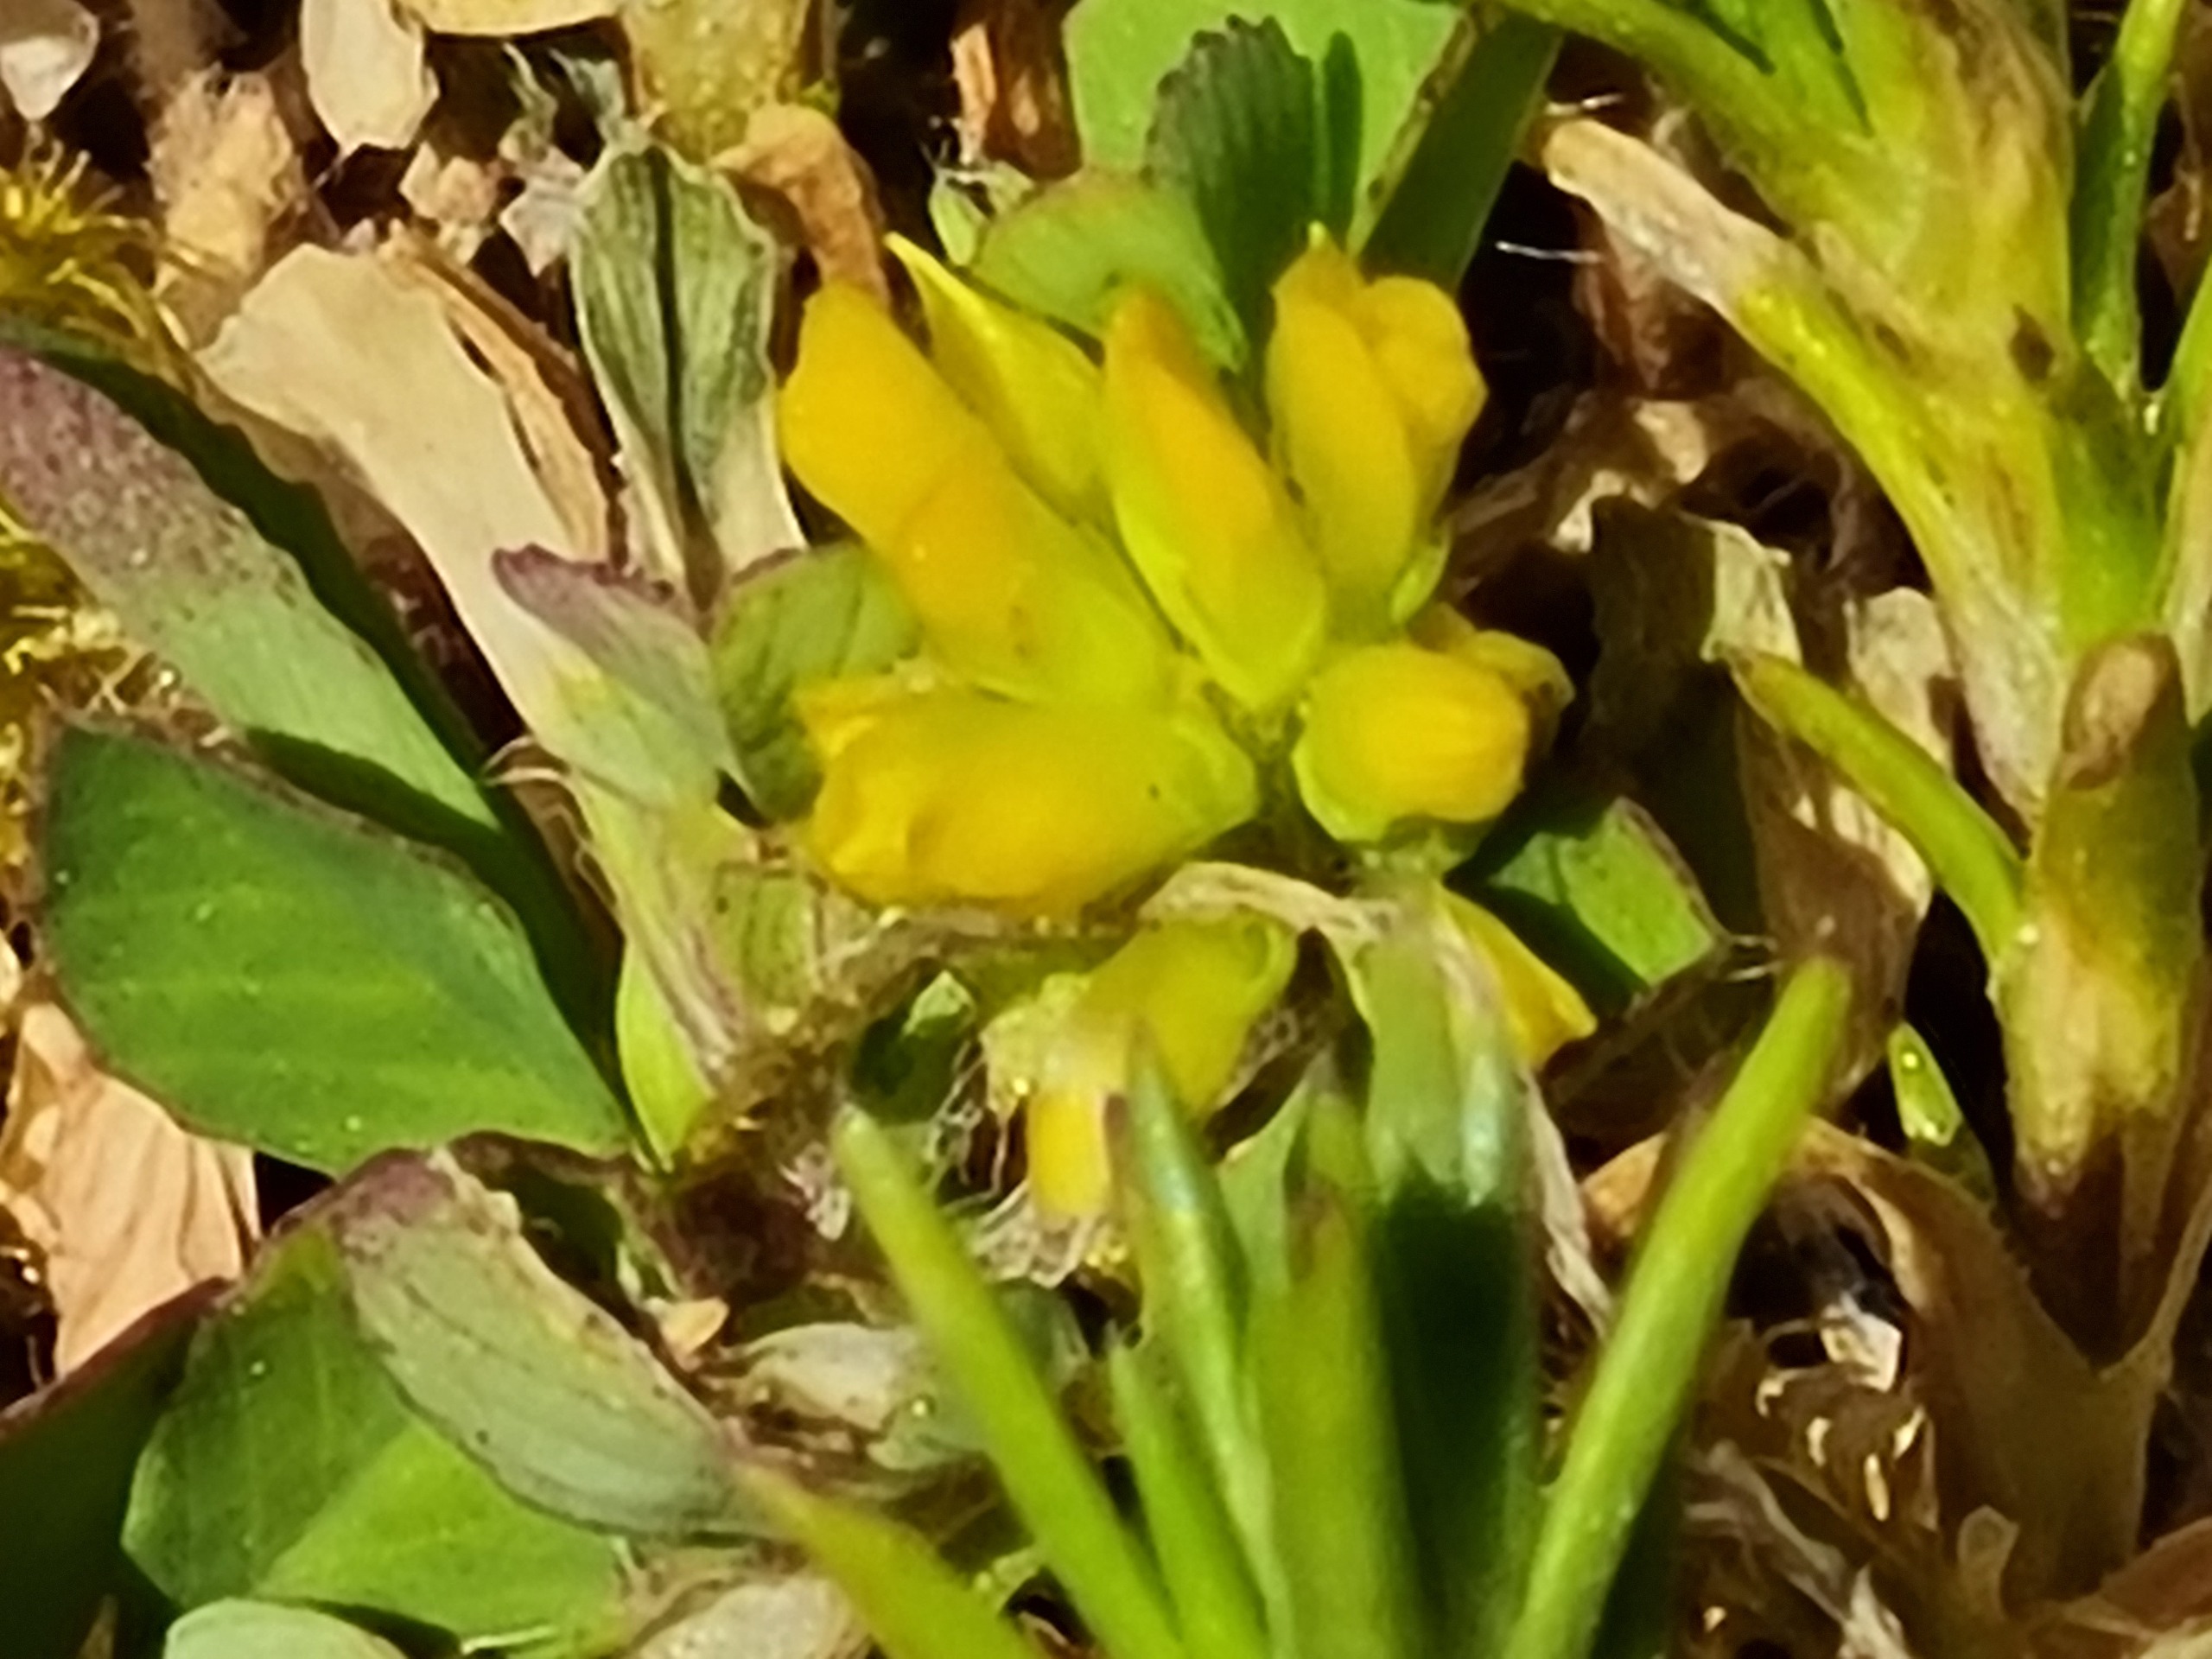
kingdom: Plantae
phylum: Tracheophyta
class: Magnoliopsida
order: Fabales
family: Fabaceae
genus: Trifolium
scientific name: Trifolium dubium
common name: Fin kløver
